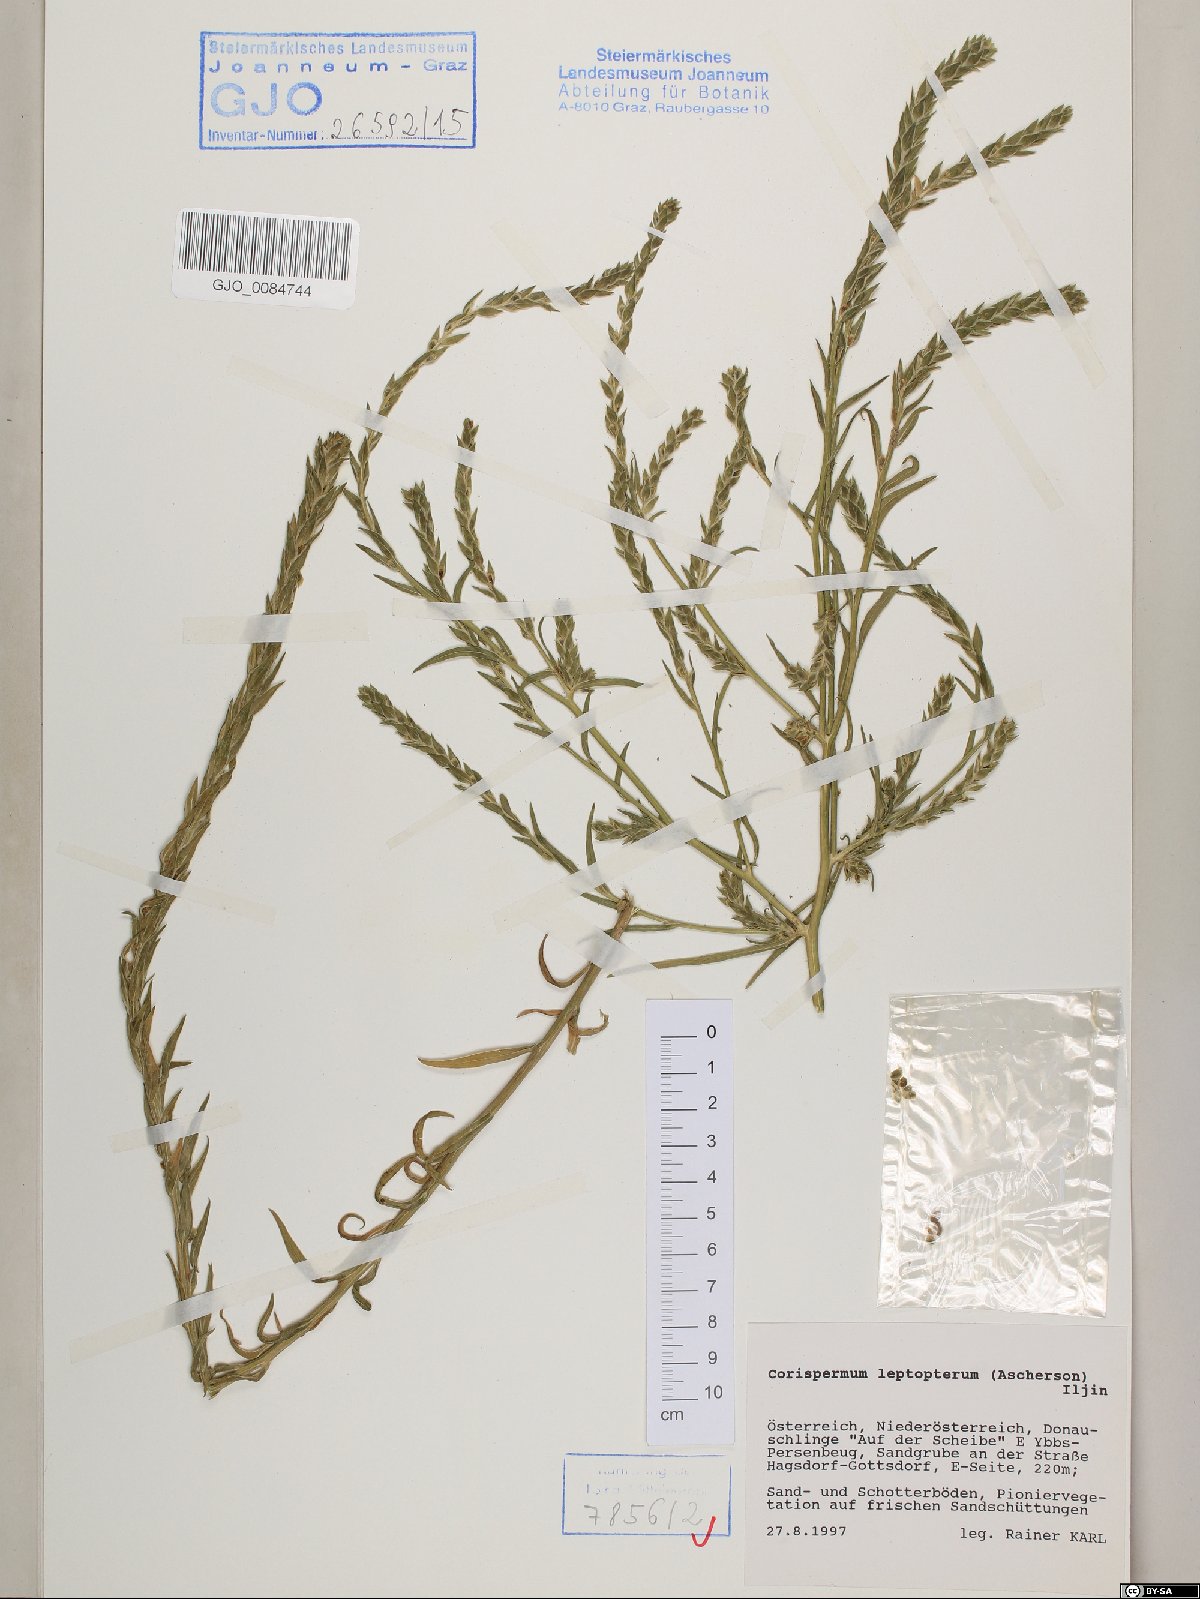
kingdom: Plantae
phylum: Tracheophyta
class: Magnoliopsida
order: Caryophyllales
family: Amaranthaceae
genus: Corispermum
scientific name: Corispermum pallasii
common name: Siberian bugseed
